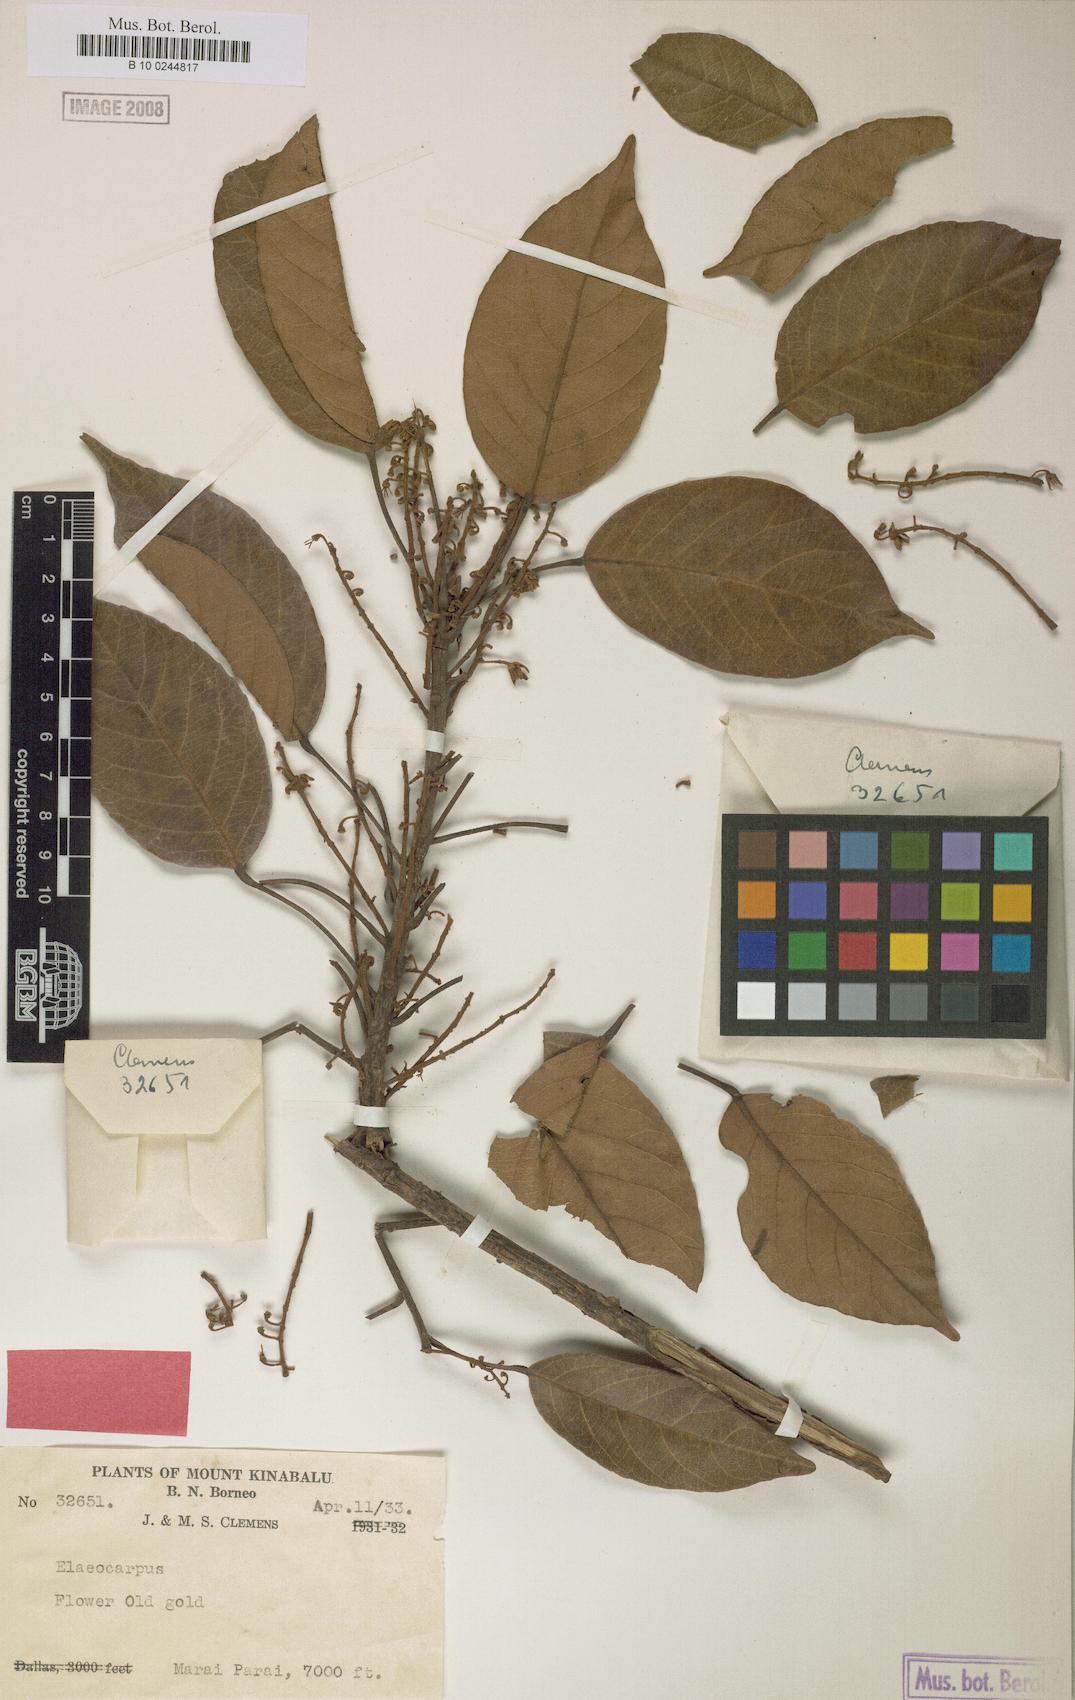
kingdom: Plantae
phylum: Tracheophyta
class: Magnoliopsida
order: Oxalidales
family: Elaeocarpaceae
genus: Elaeocarpus
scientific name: Elaeocarpus ferrugineus
